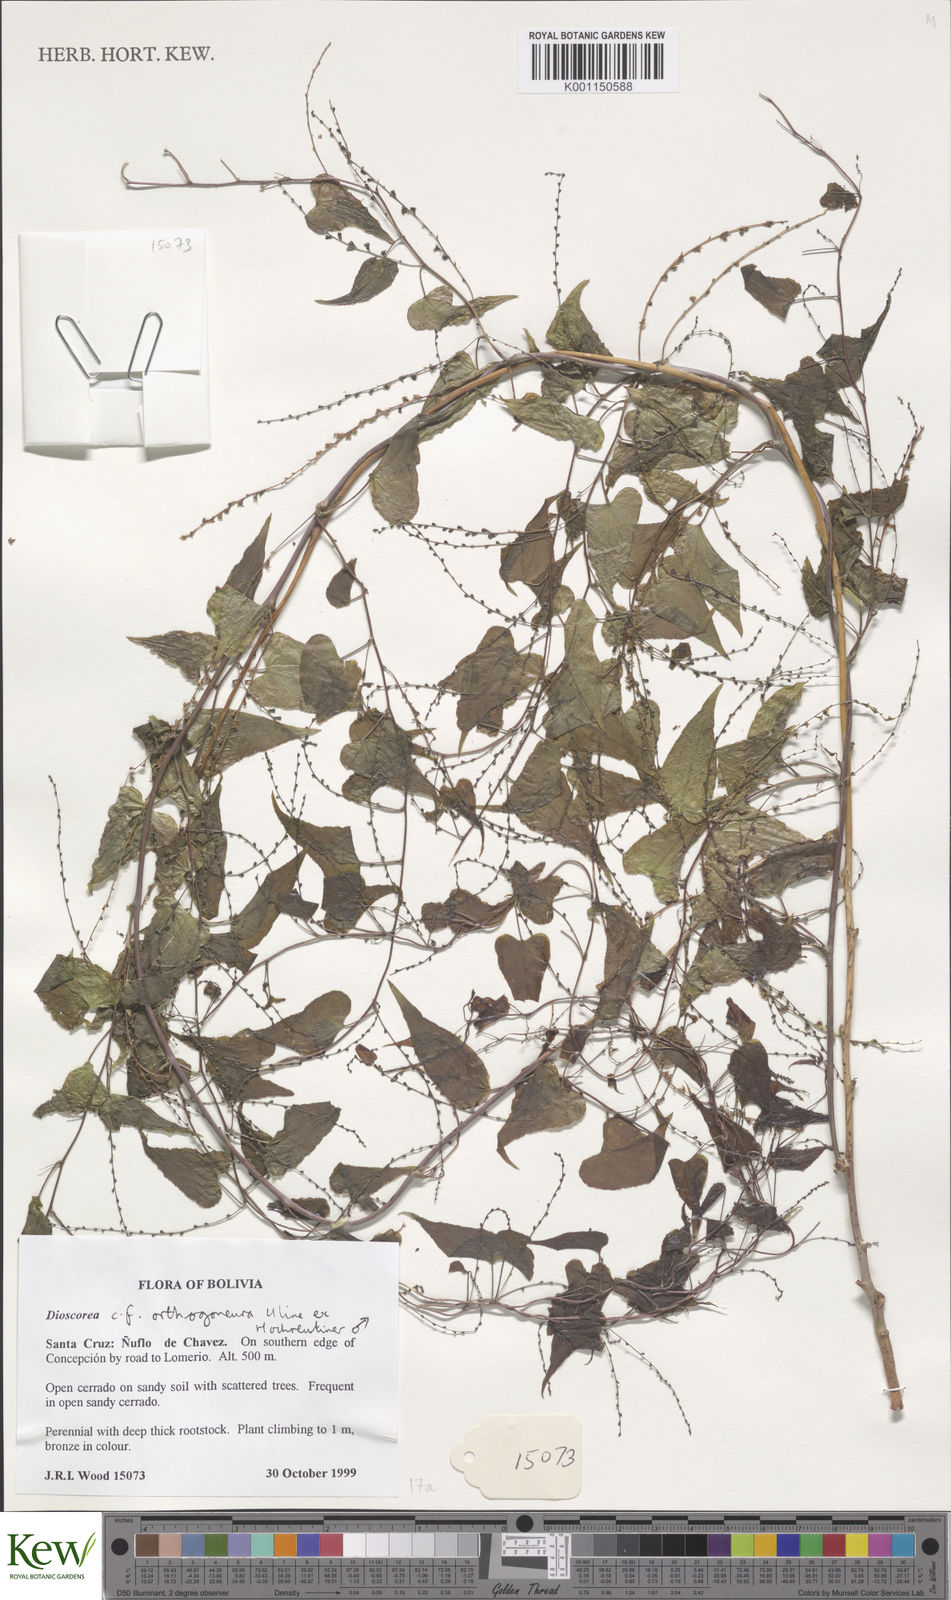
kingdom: Plantae
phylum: Tracheophyta
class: Liliopsida
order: Dioscoreales
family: Dioscoreaceae
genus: Dioscorea
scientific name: Dioscorea orthogoneura
